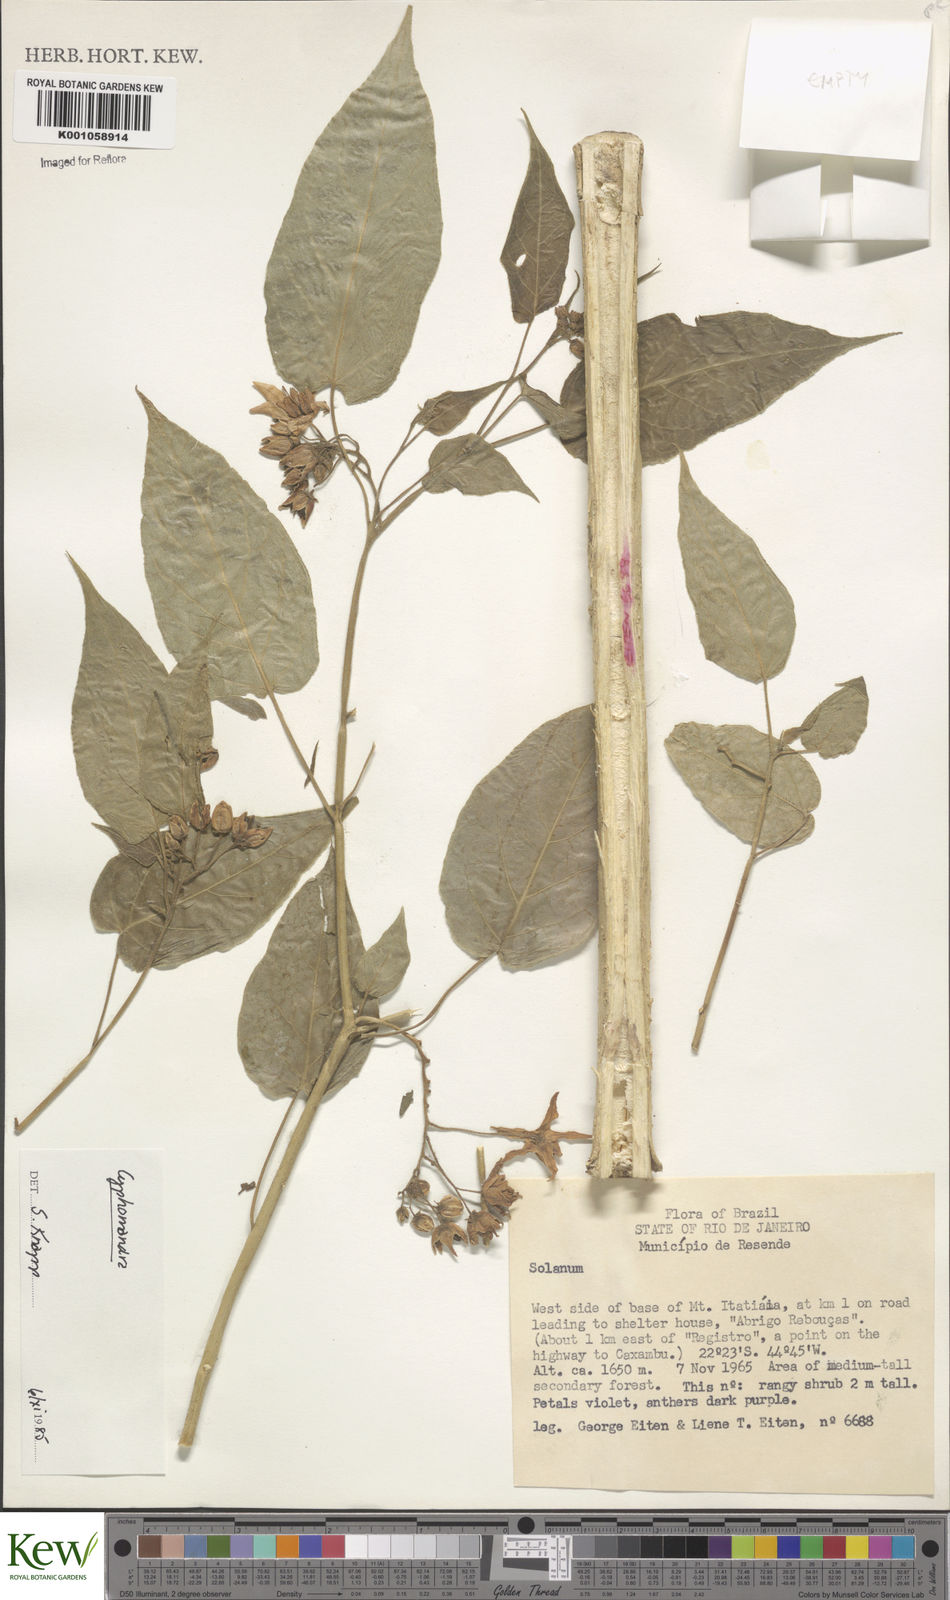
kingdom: Plantae
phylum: Tracheophyta
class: Magnoliopsida
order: Solanales
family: Solanaceae
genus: Solanum
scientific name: Solanum
